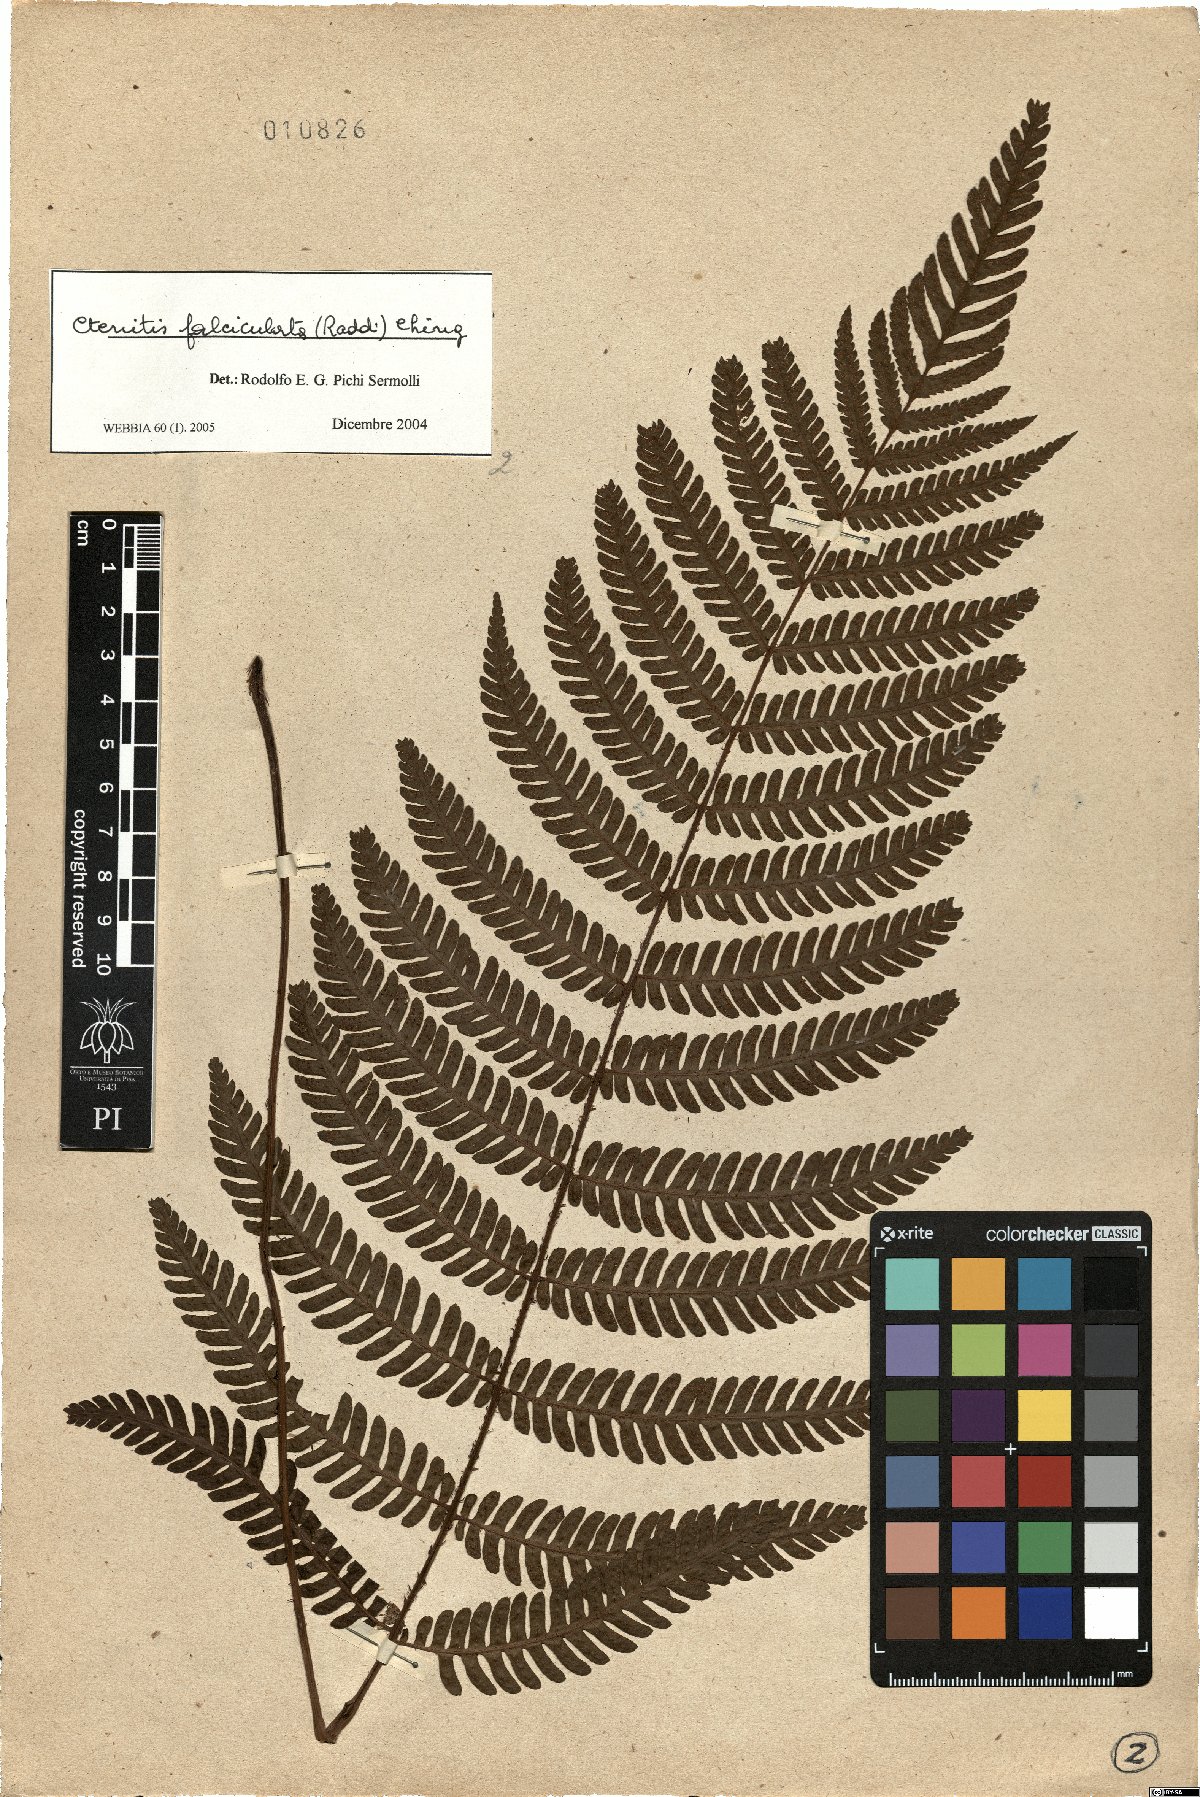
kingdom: Plantae
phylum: Tracheophyta
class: Polypodiopsida
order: Polypodiales
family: Dryopteridaceae
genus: Ctenitis
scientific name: Ctenitis falciculata
